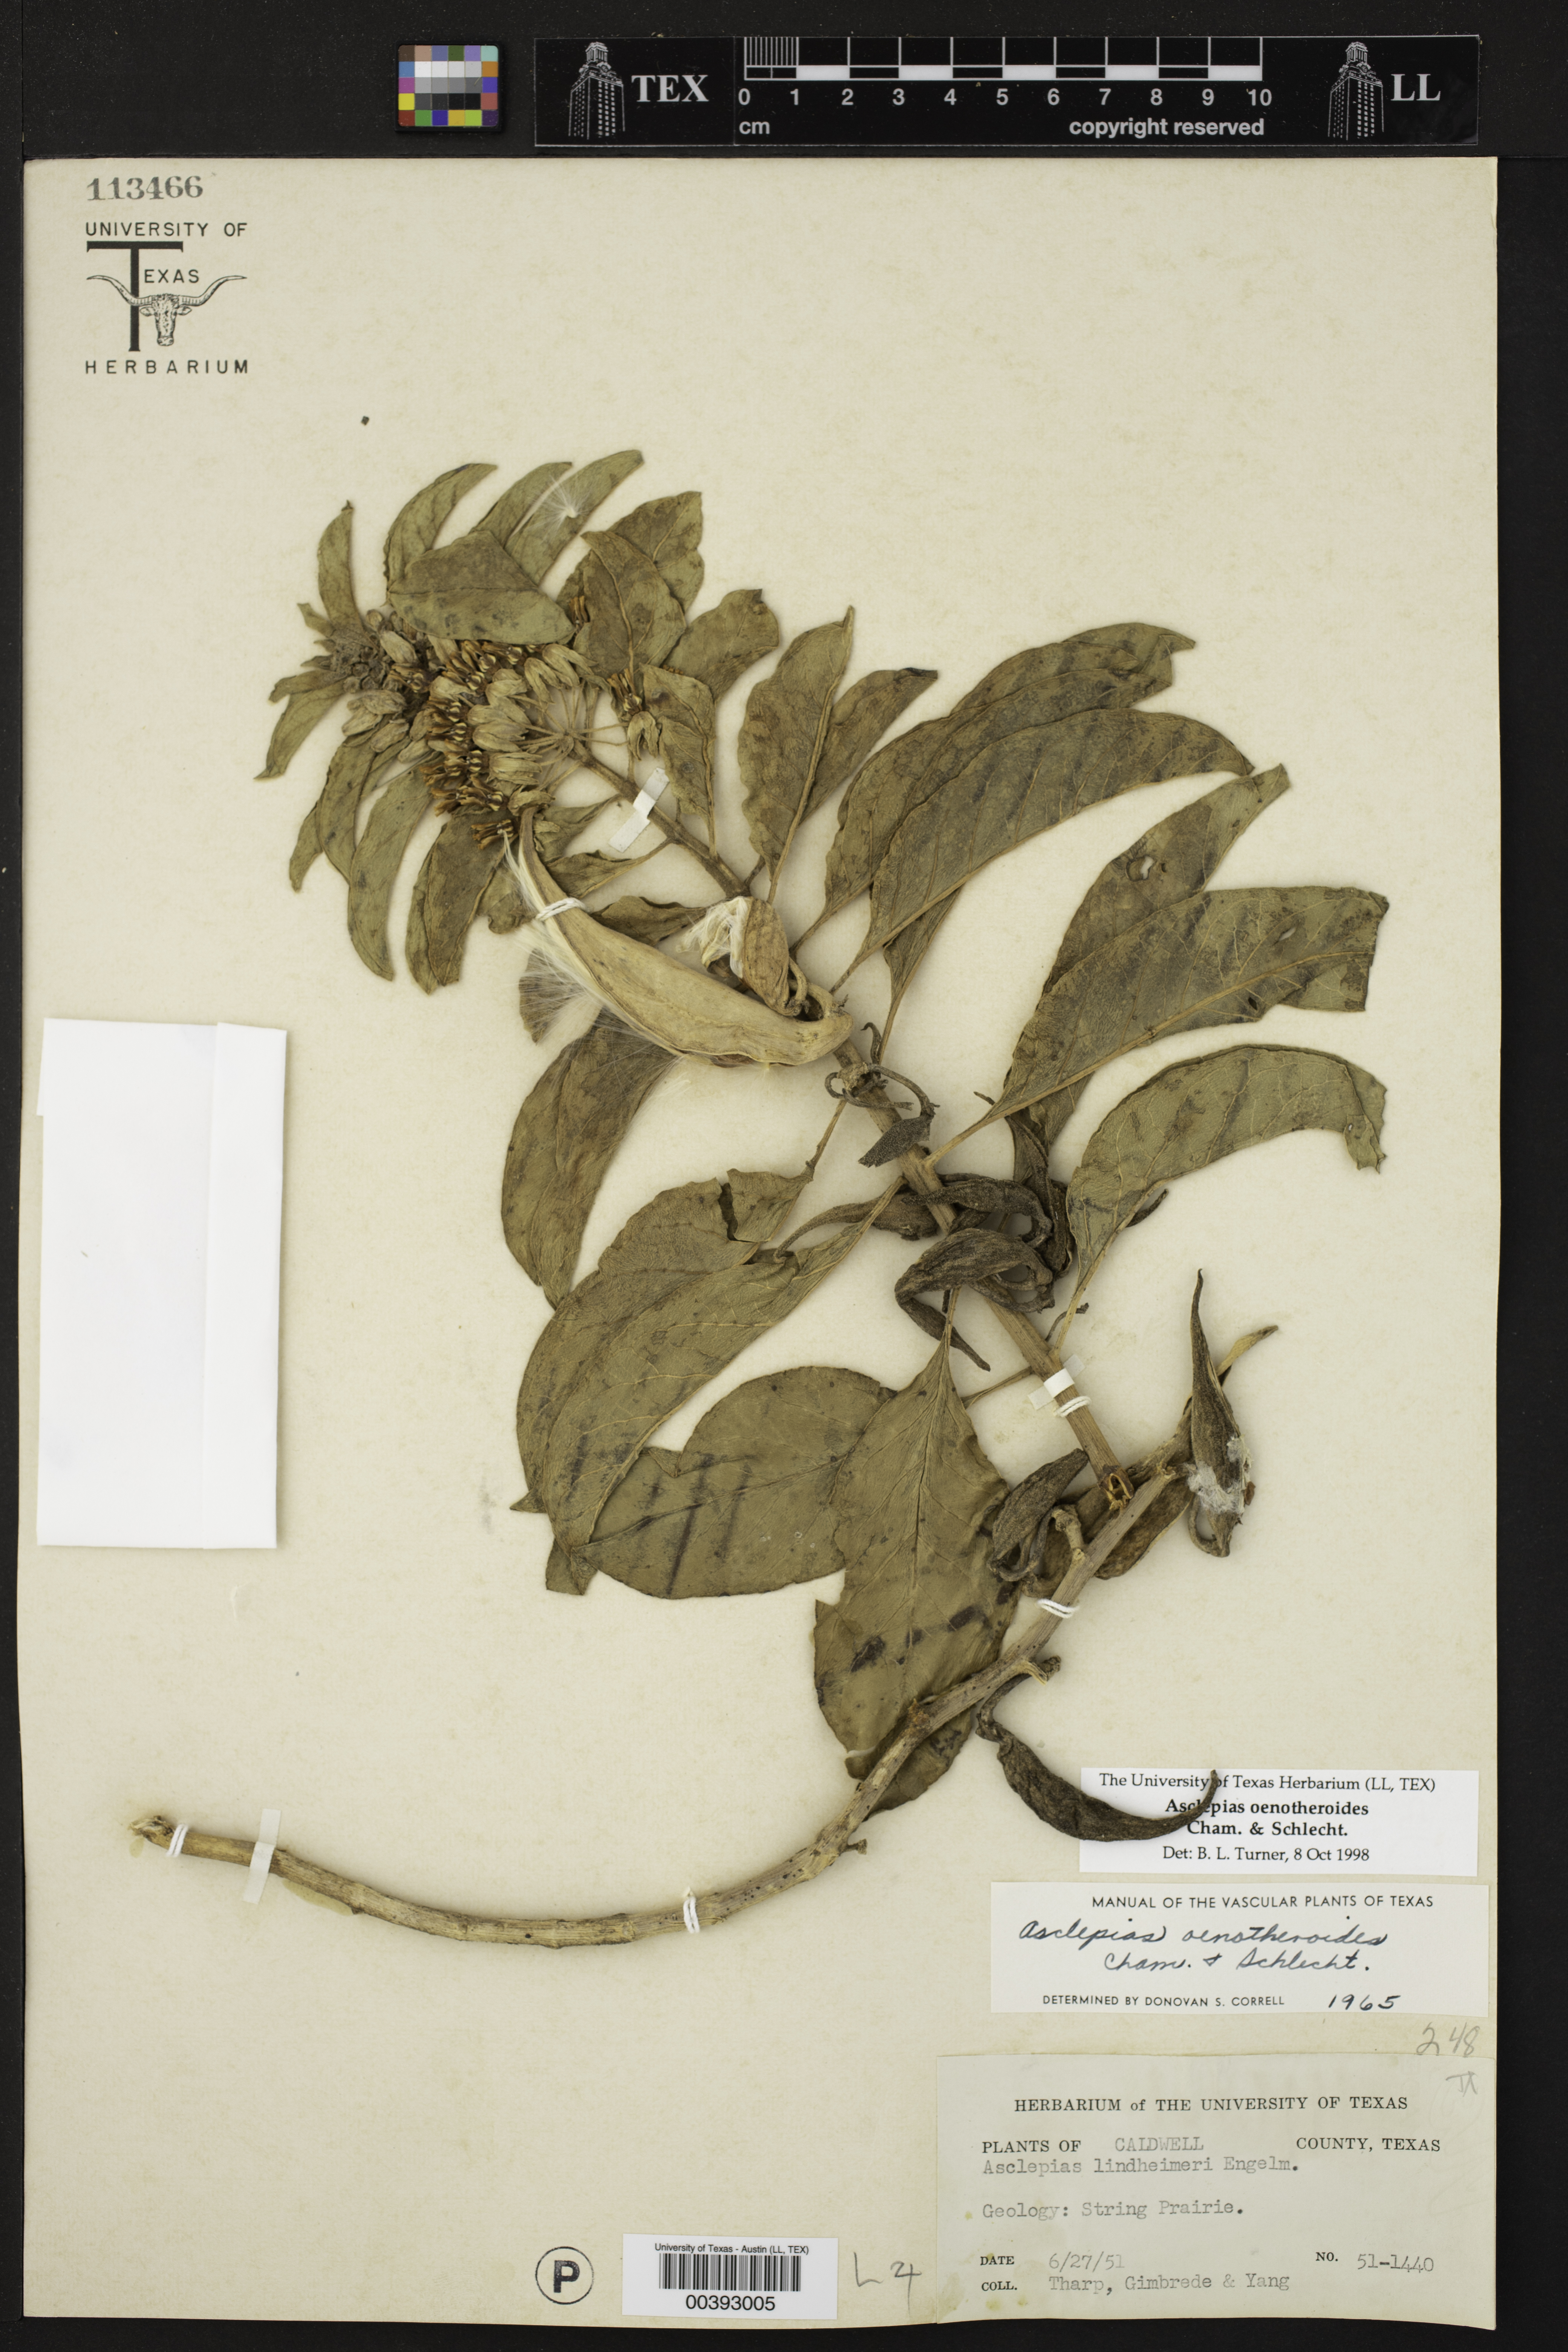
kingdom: Plantae
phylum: Tracheophyta
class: Magnoliopsida
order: Gentianales
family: Apocynaceae
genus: Asclepias
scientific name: Asclepias oenotheroides
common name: Zizotes milkweed
